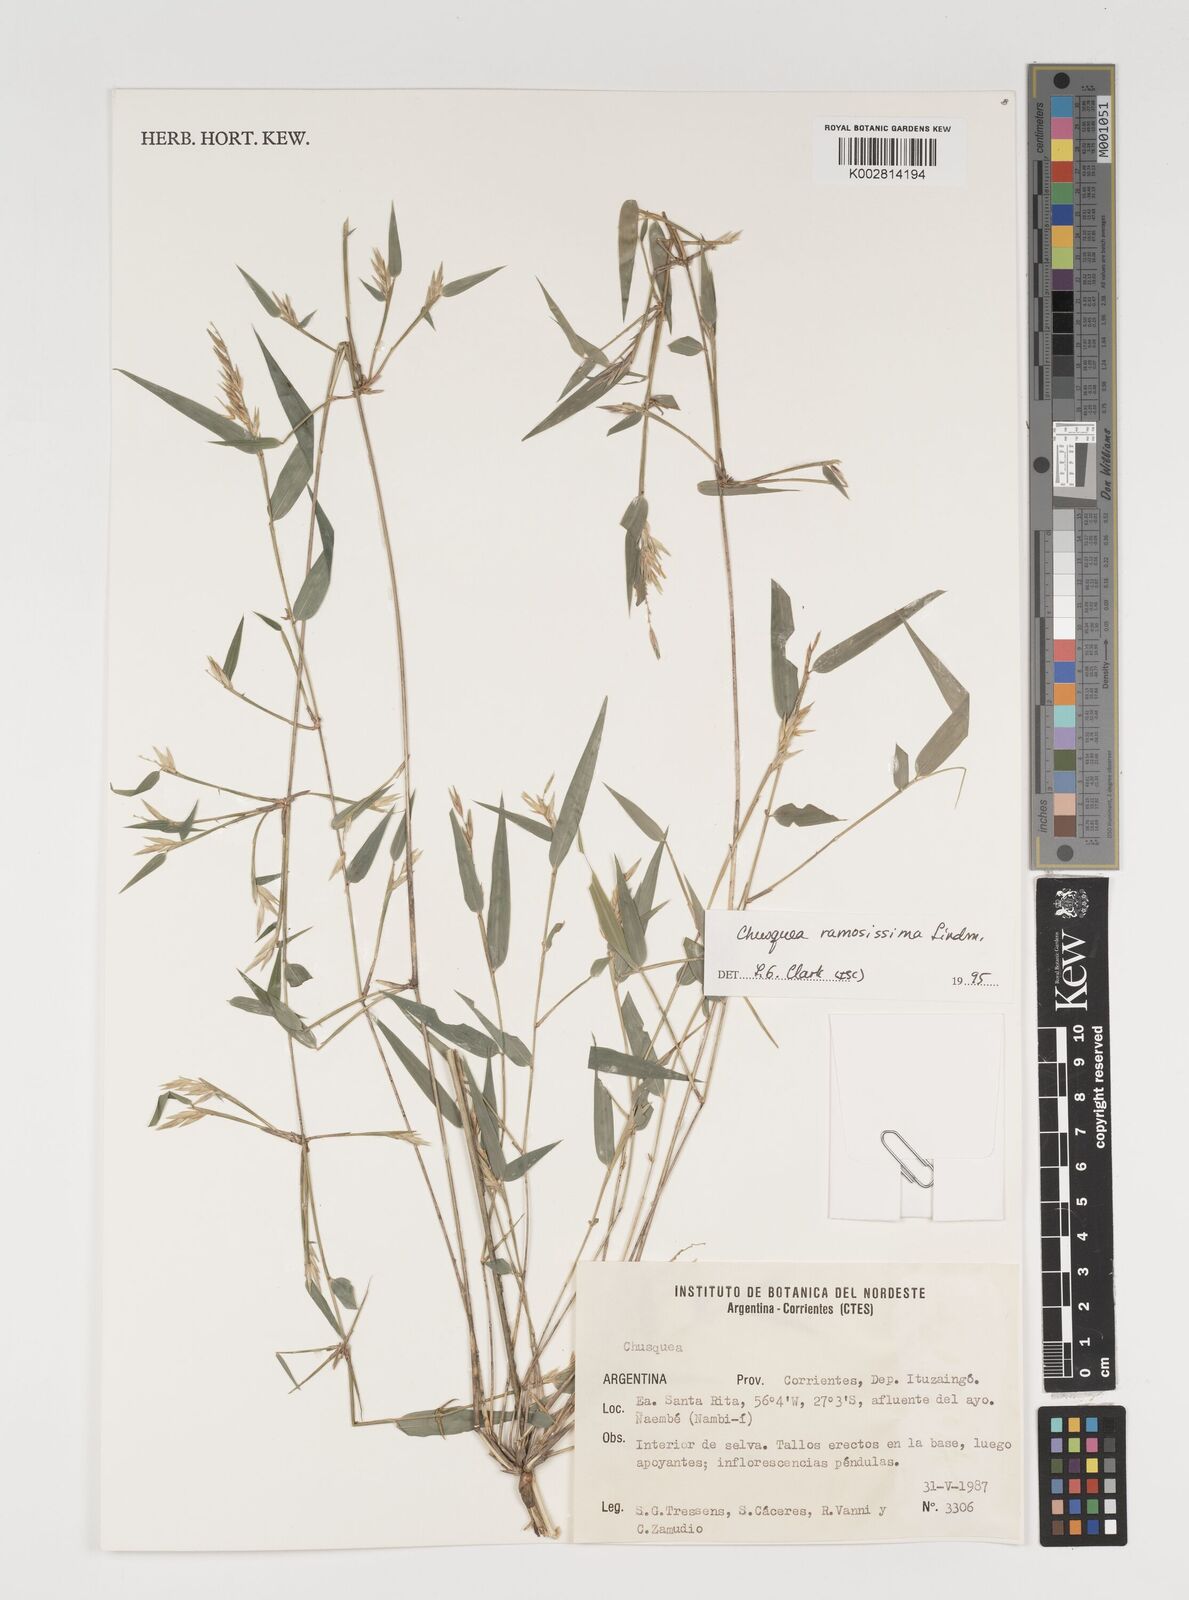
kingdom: Plantae
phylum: Tracheophyta
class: Liliopsida
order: Poales
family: Poaceae
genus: Chusquea
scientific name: Chusquea ramosissima
